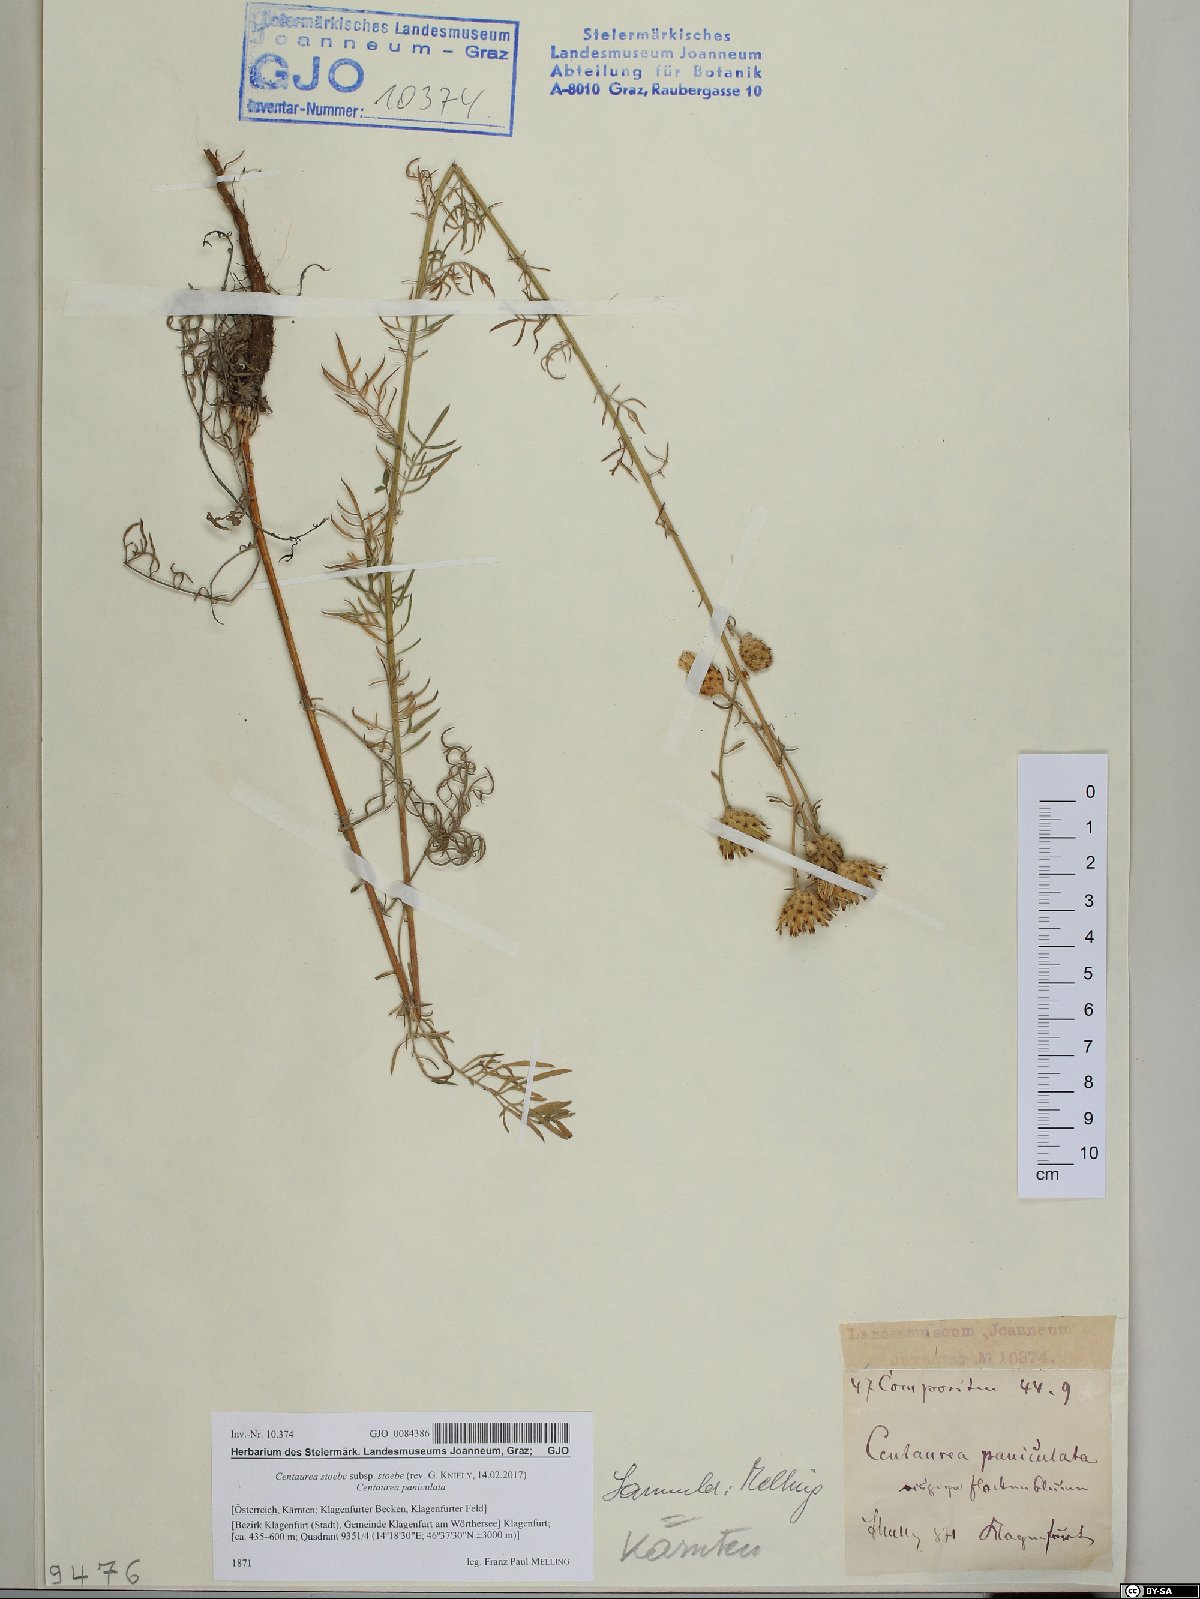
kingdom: Plantae
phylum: Tracheophyta
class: Magnoliopsida
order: Asterales
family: Asteraceae
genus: Centaurea
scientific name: Centaurea stoebe
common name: Spotted knapweed
